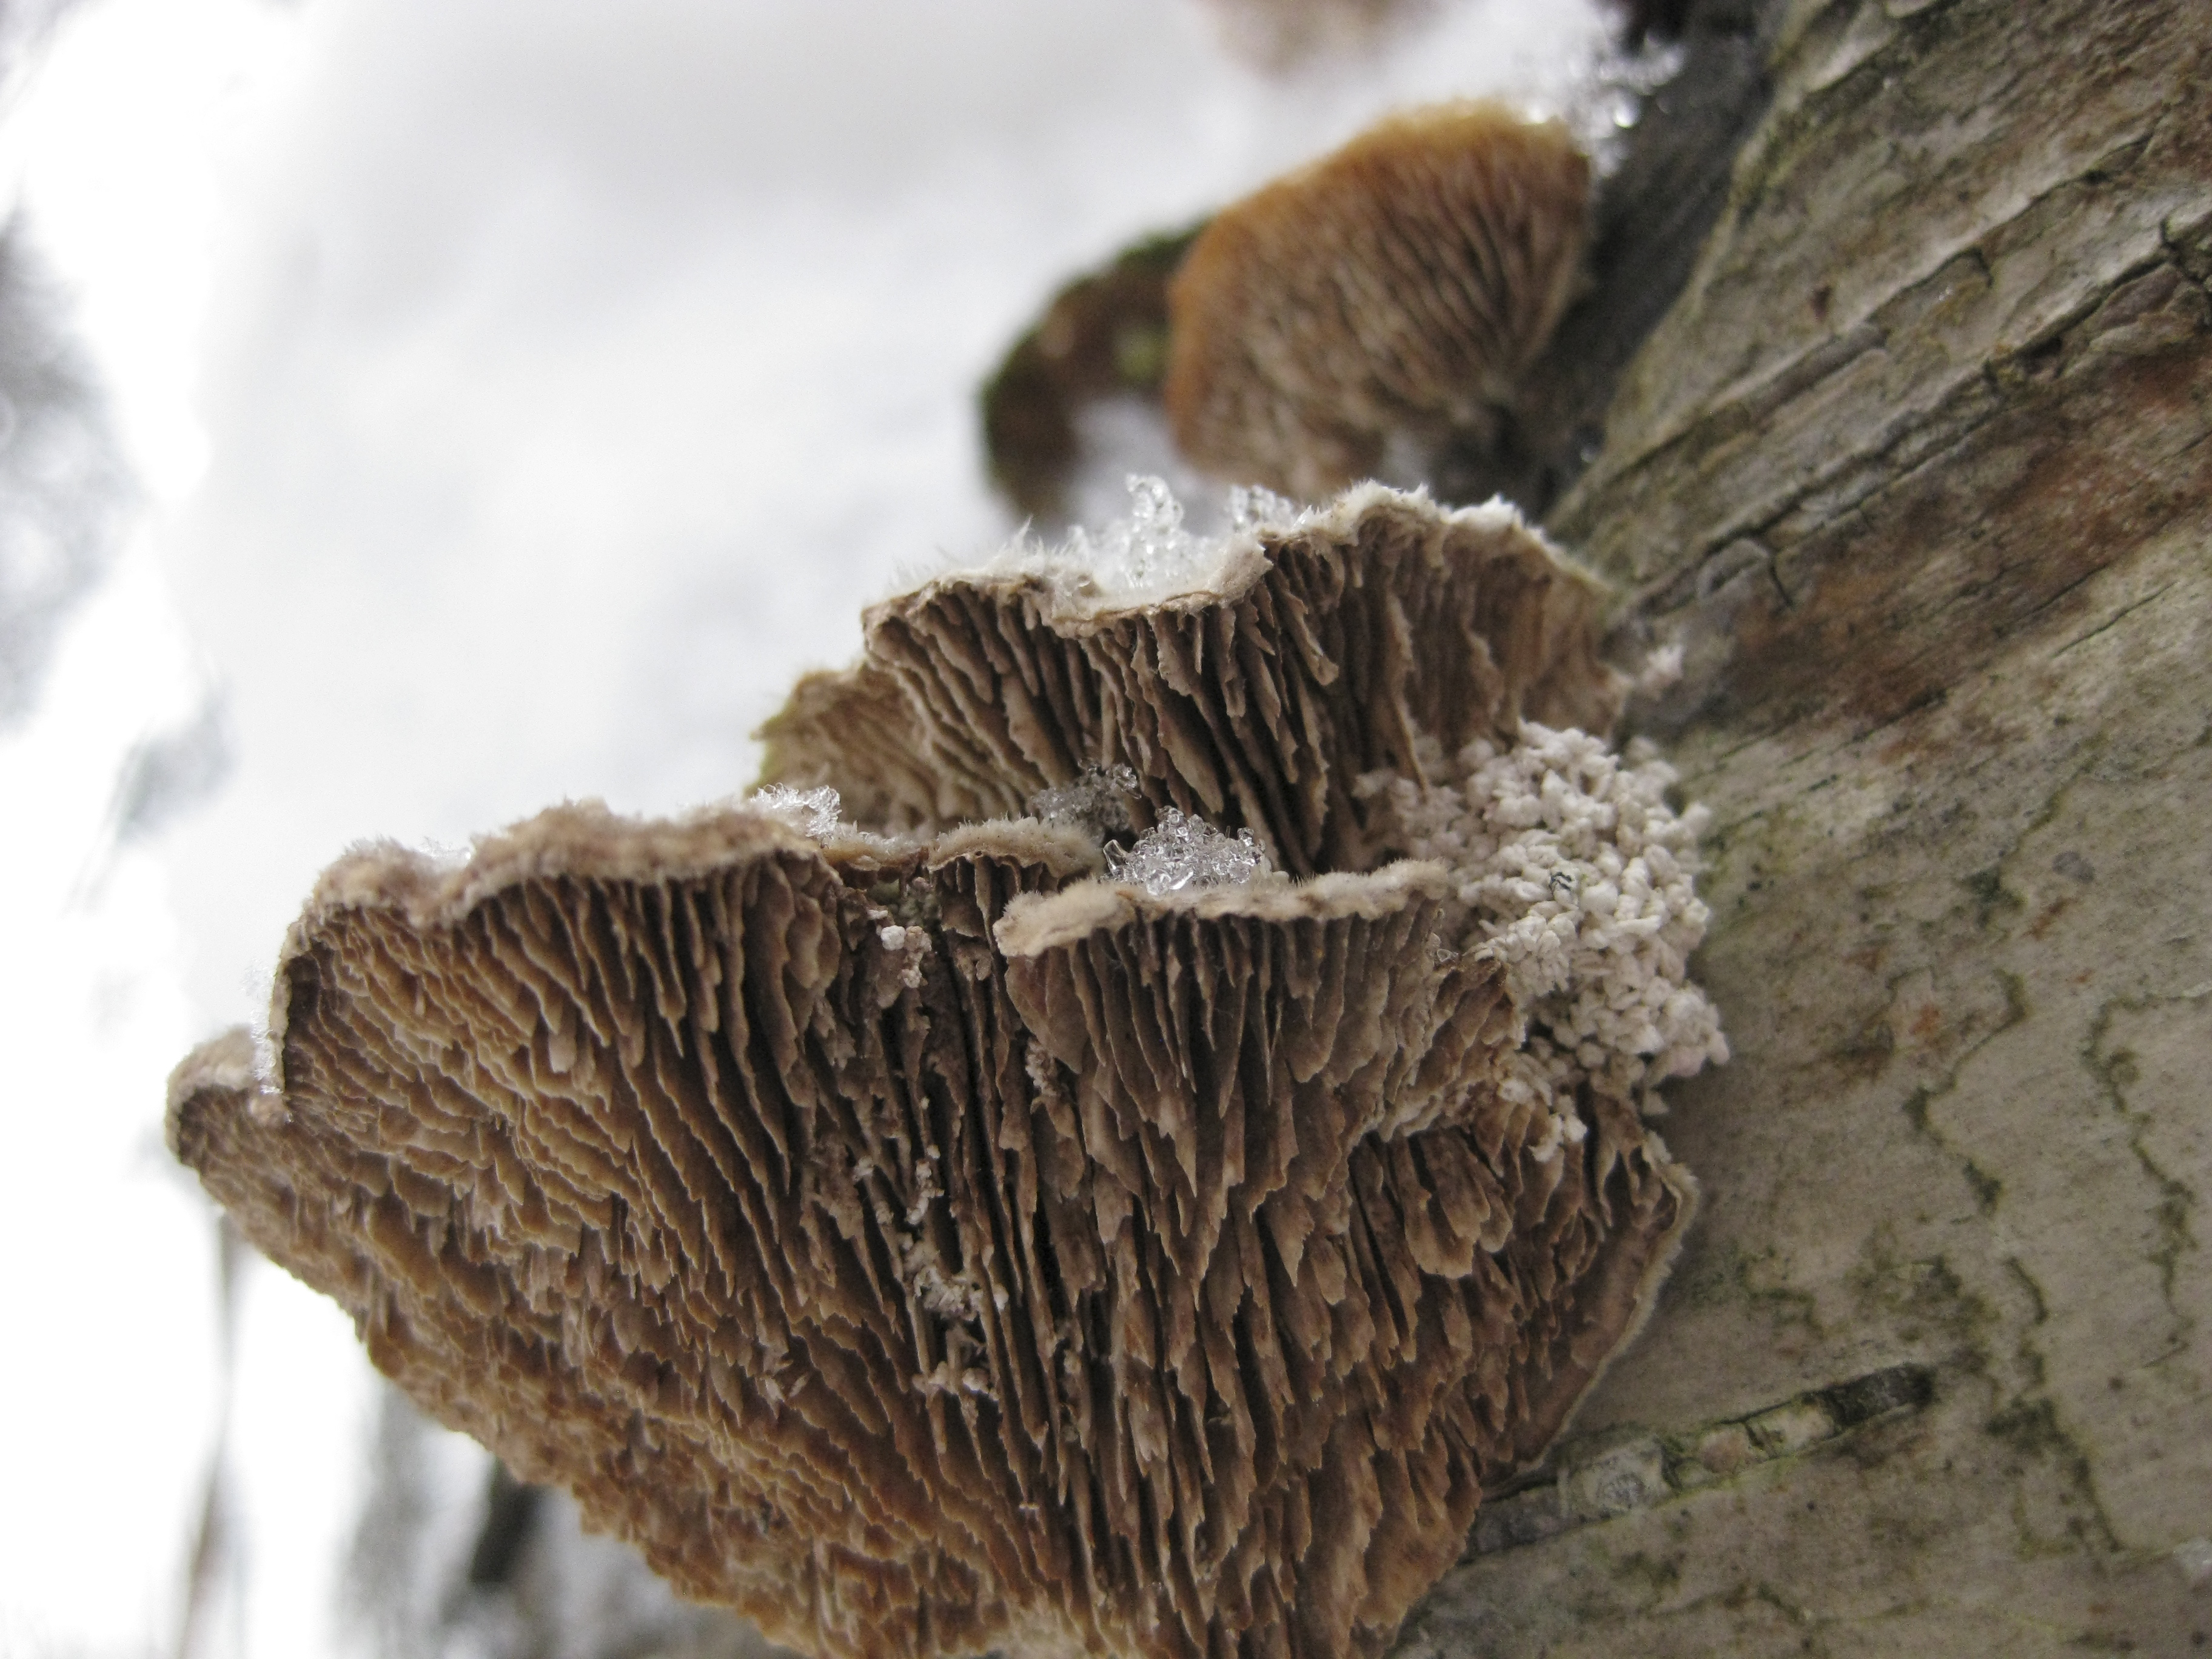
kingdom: Fungi
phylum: Basidiomycota
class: Agaricomycetes
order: Polyporales
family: Polyporaceae
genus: Lenzites
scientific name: Lenzites betulinus
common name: Birch mazegill
